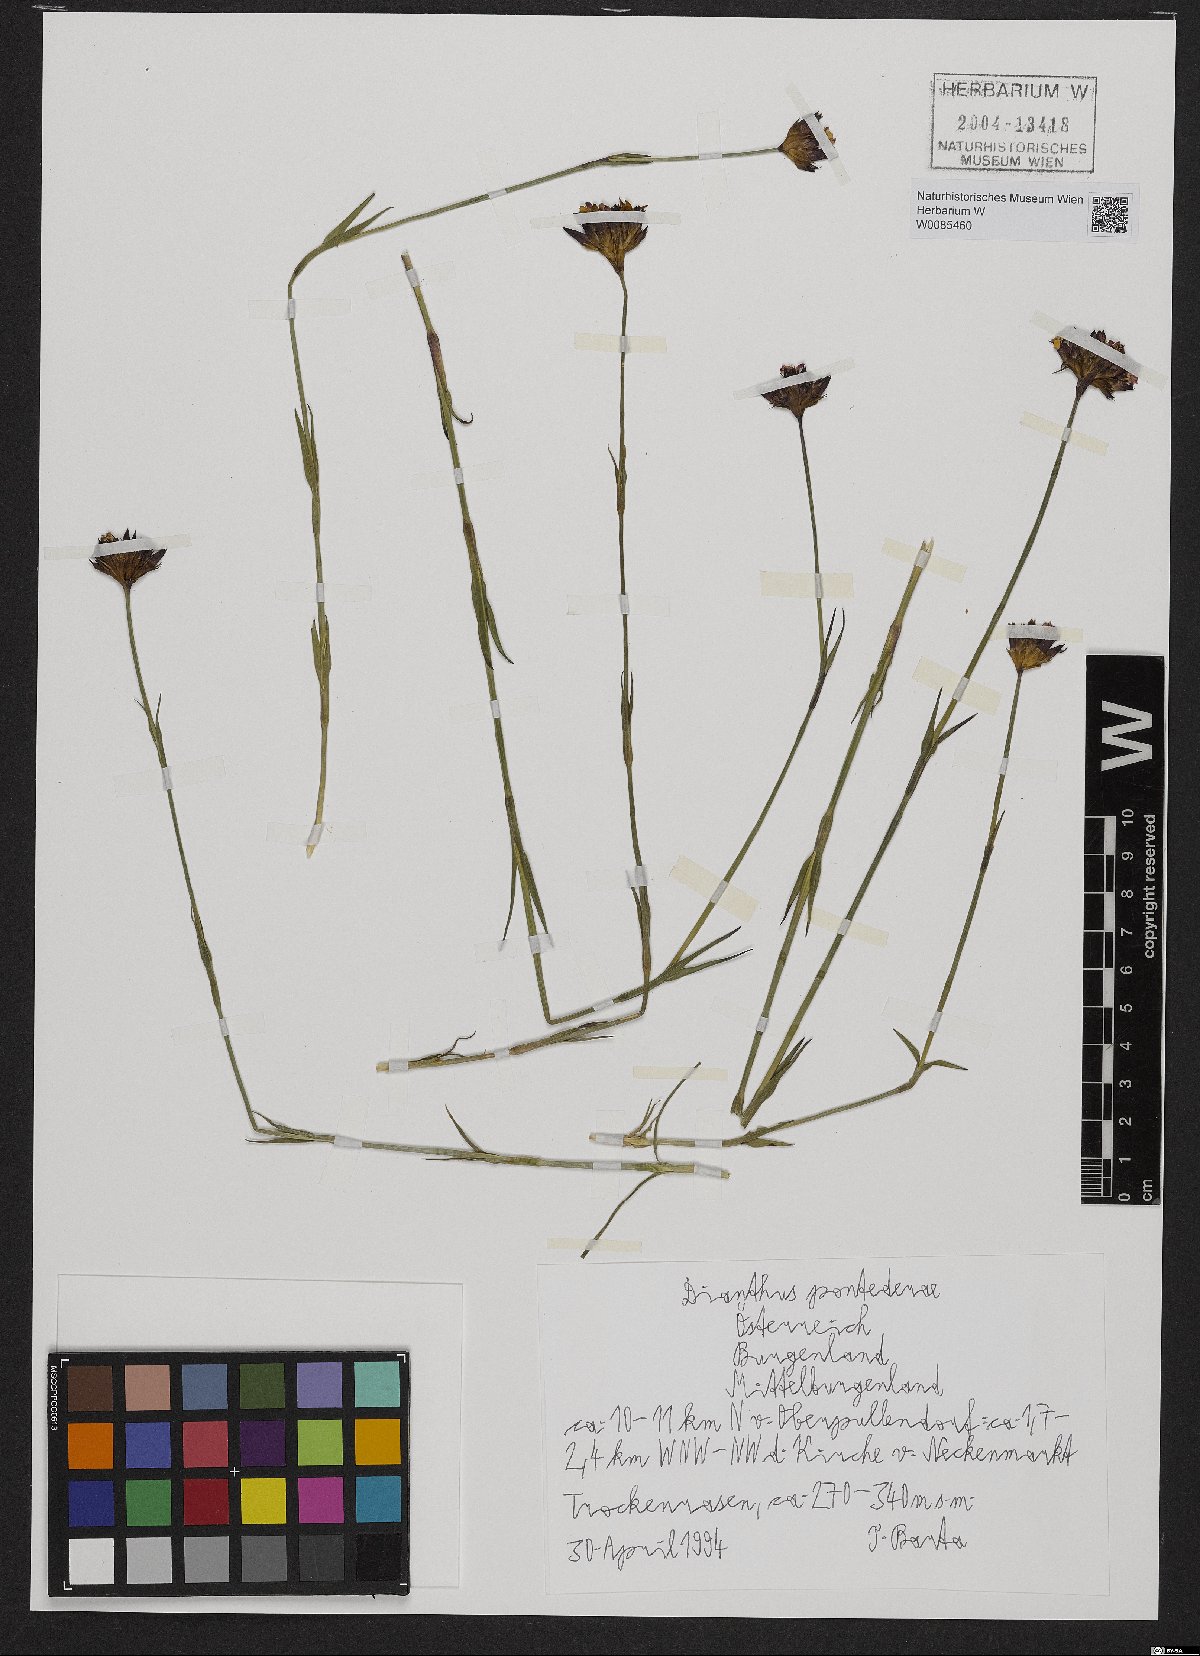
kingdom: Plantae
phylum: Tracheophyta
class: Magnoliopsida
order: Caryophyllales
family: Caryophyllaceae
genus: Dianthus
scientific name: Dianthus pontederae
